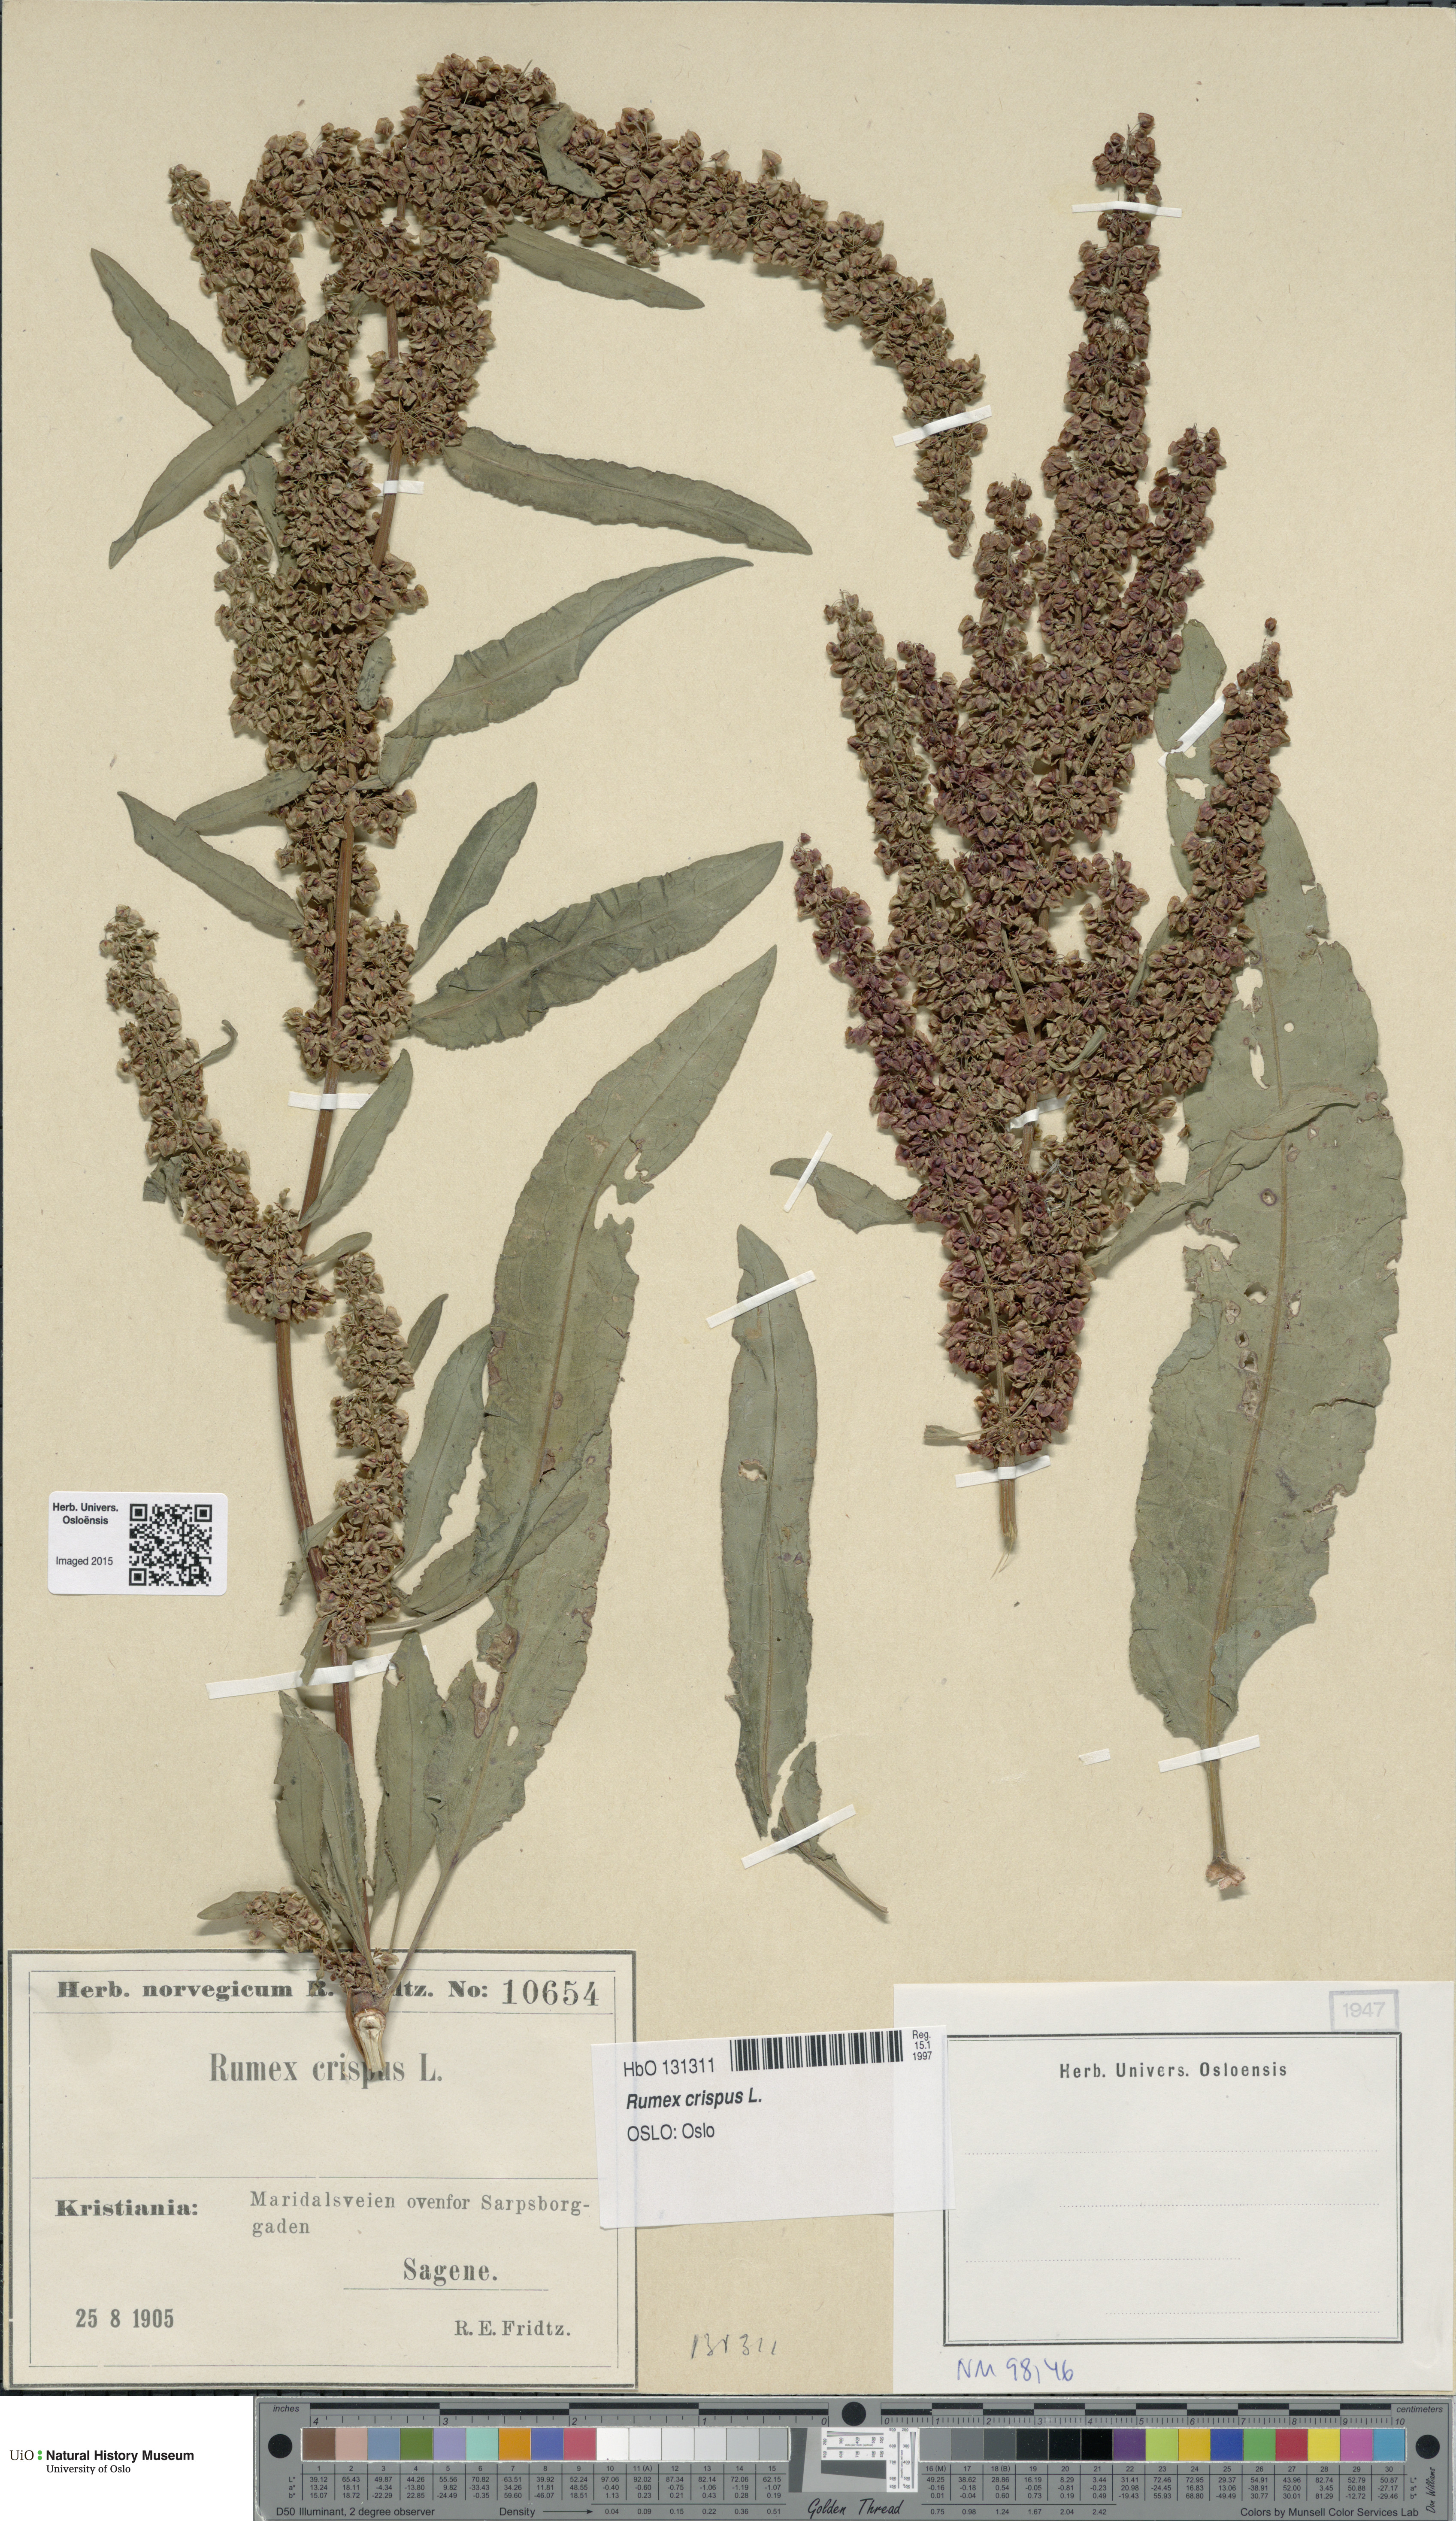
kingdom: Plantae
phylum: Tracheophyta
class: Magnoliopsida
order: Caryophyllales
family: Polygonaceae
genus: Rumex
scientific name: Rumex crispus
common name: Curled dock
